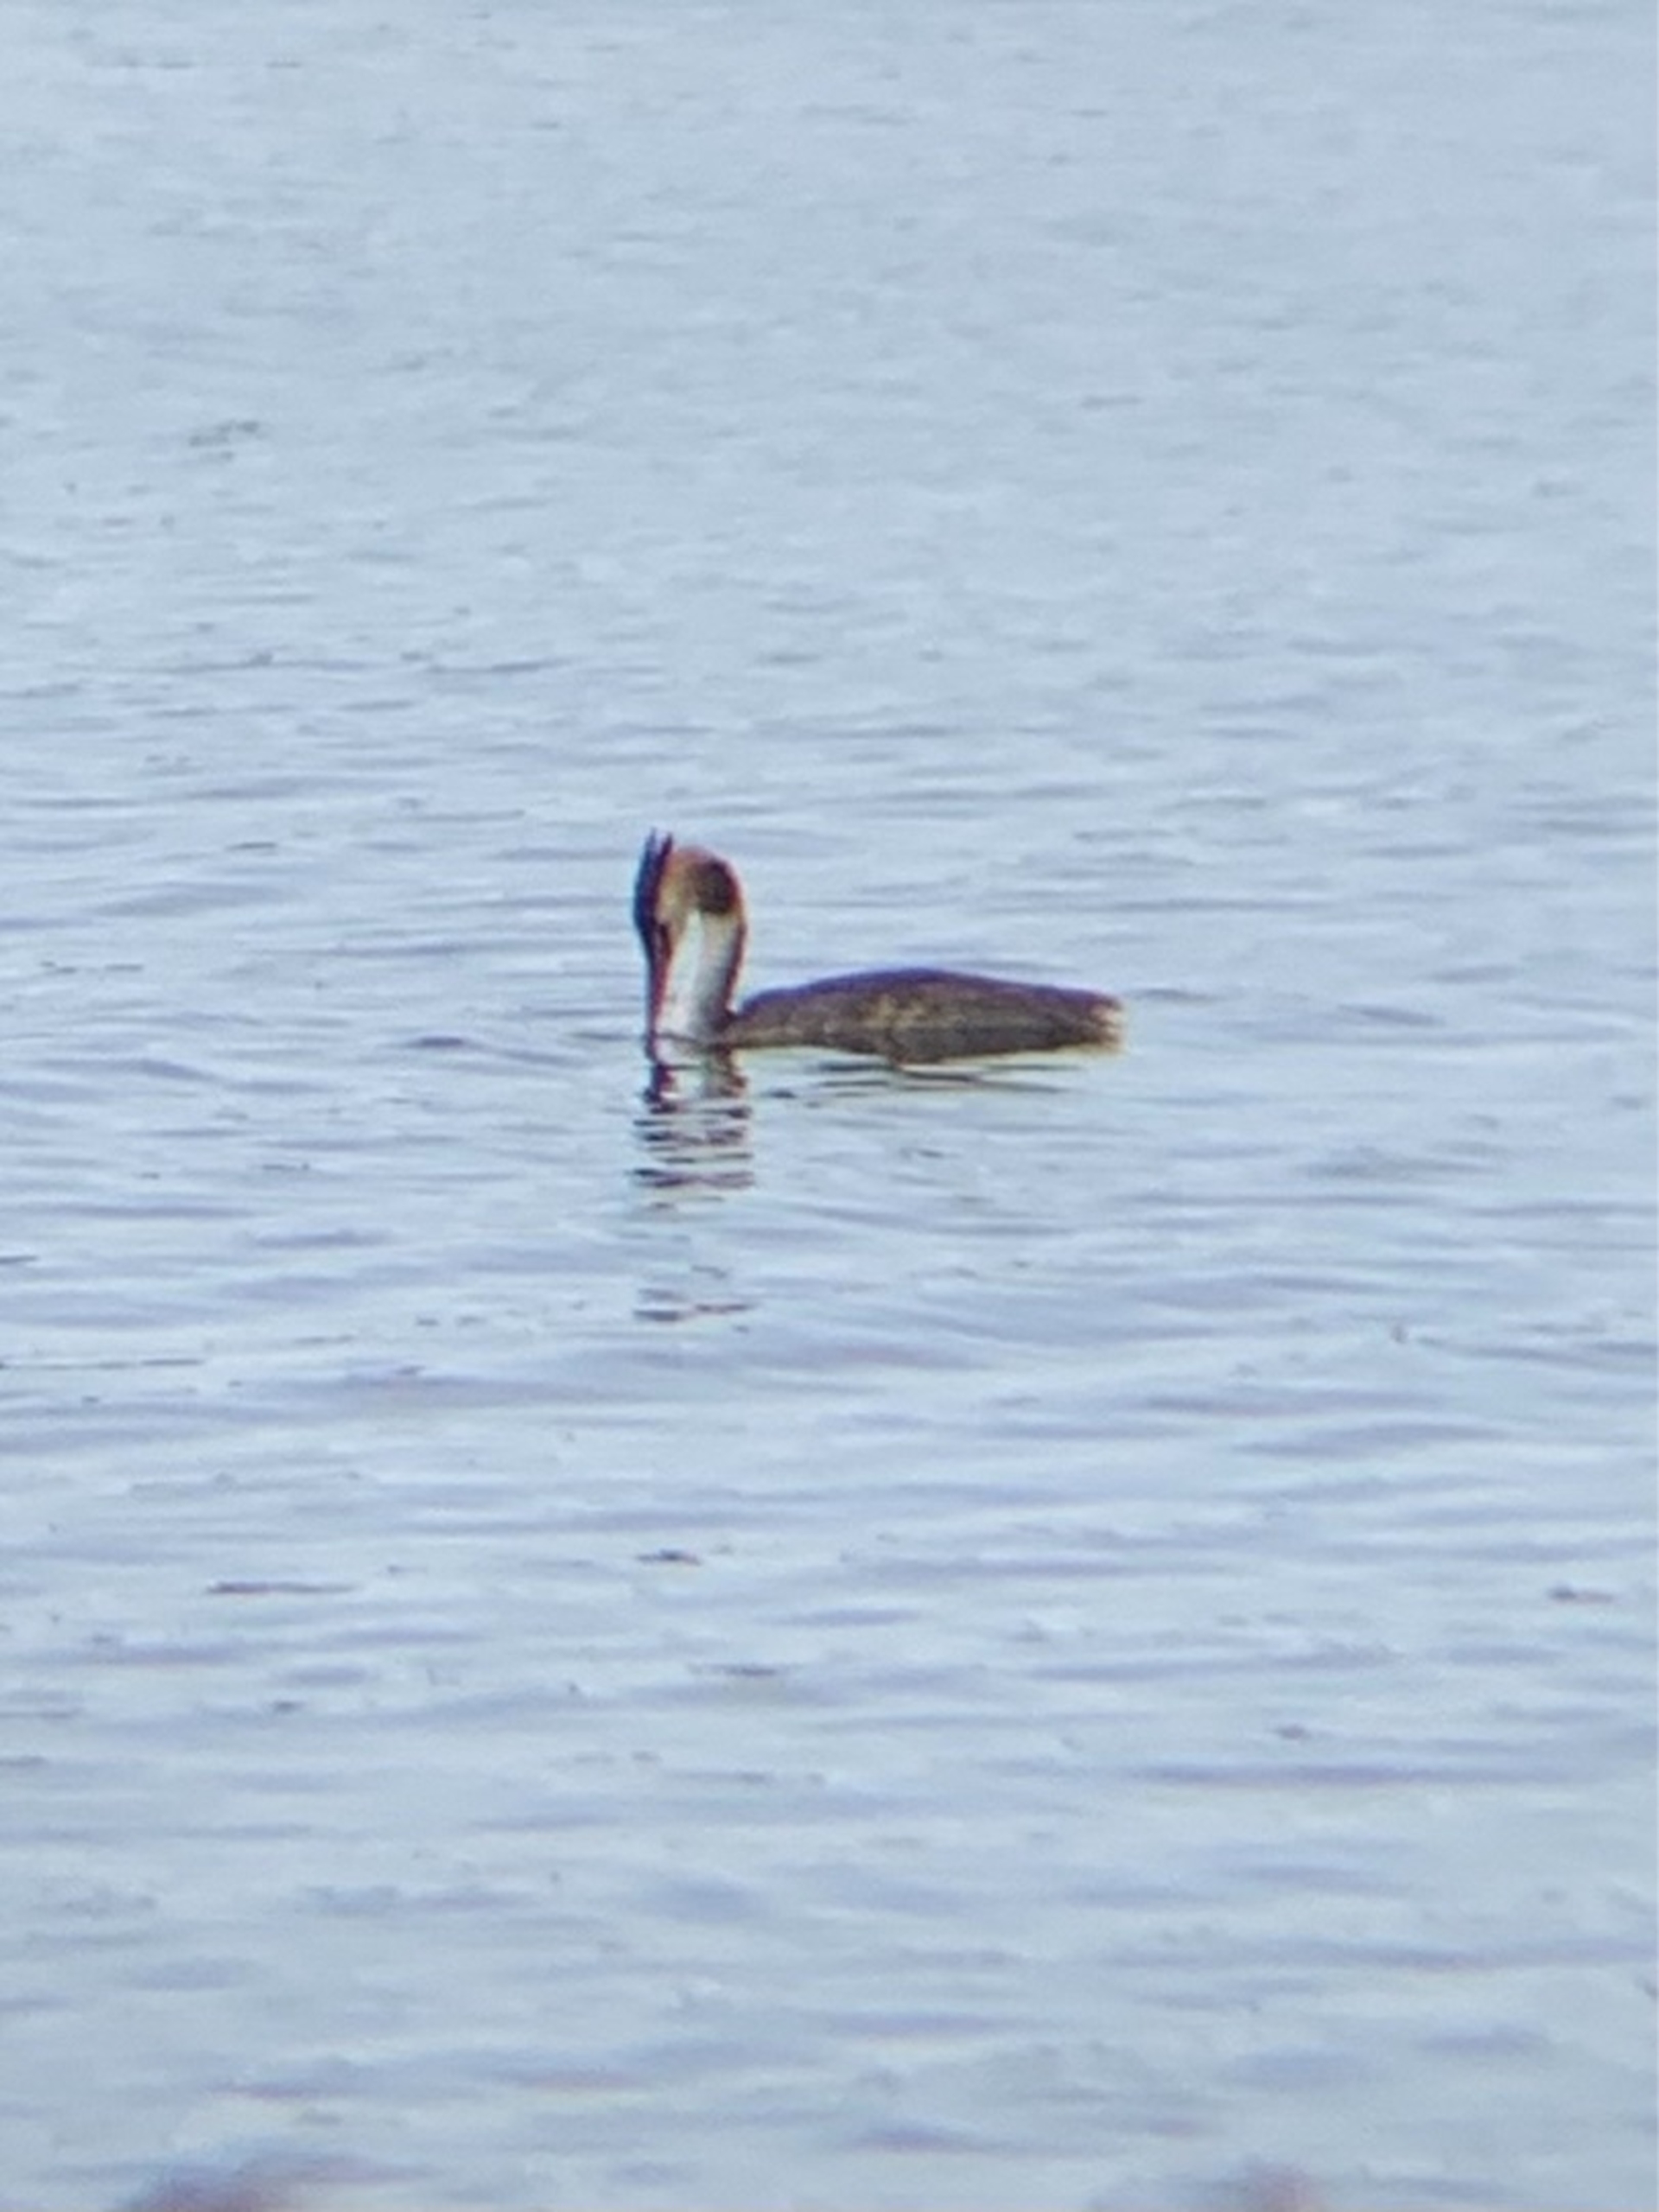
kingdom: Animalia
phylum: Chordata
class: Aves
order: Podicipediformes
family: Podicipedidae
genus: Podiceps
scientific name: Podiceps cristatus
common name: Toppet lappedykker
